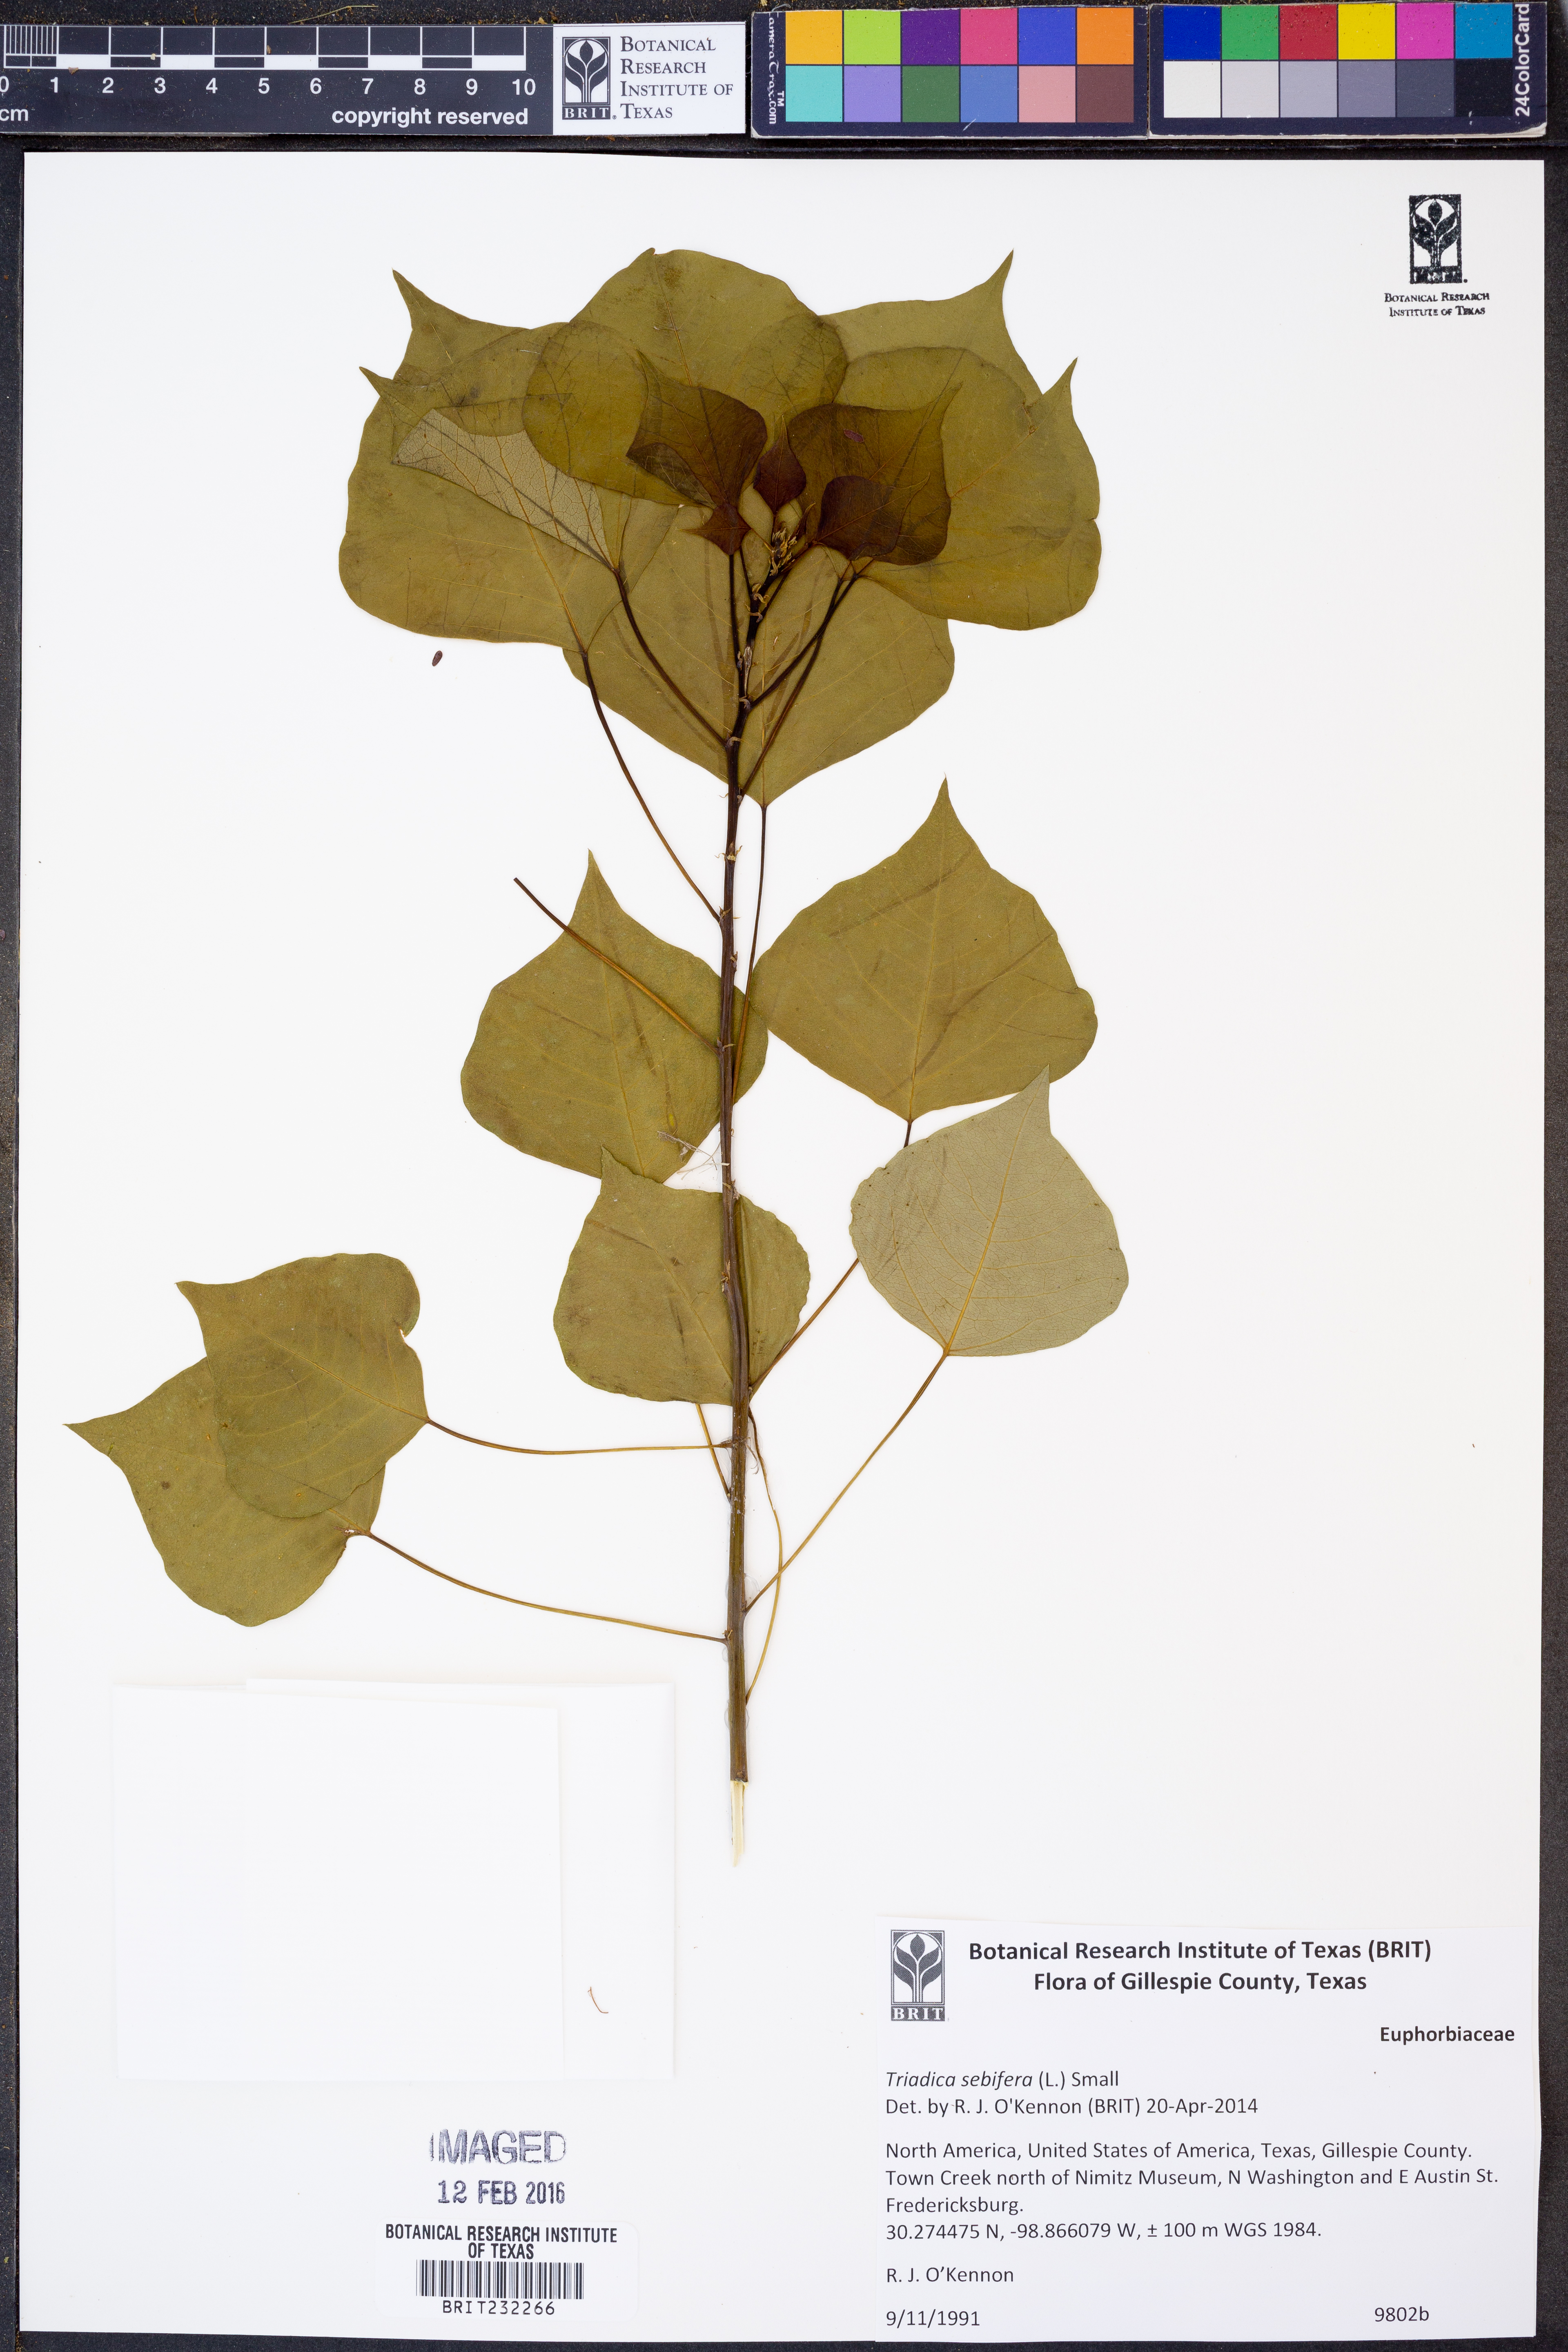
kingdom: Plantae
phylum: Tracheophyta
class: Magnoliopsida
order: Malpighiales
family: Euphorbiaceae
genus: Triadica
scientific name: Triadica sebifera
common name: Chinese tallow
